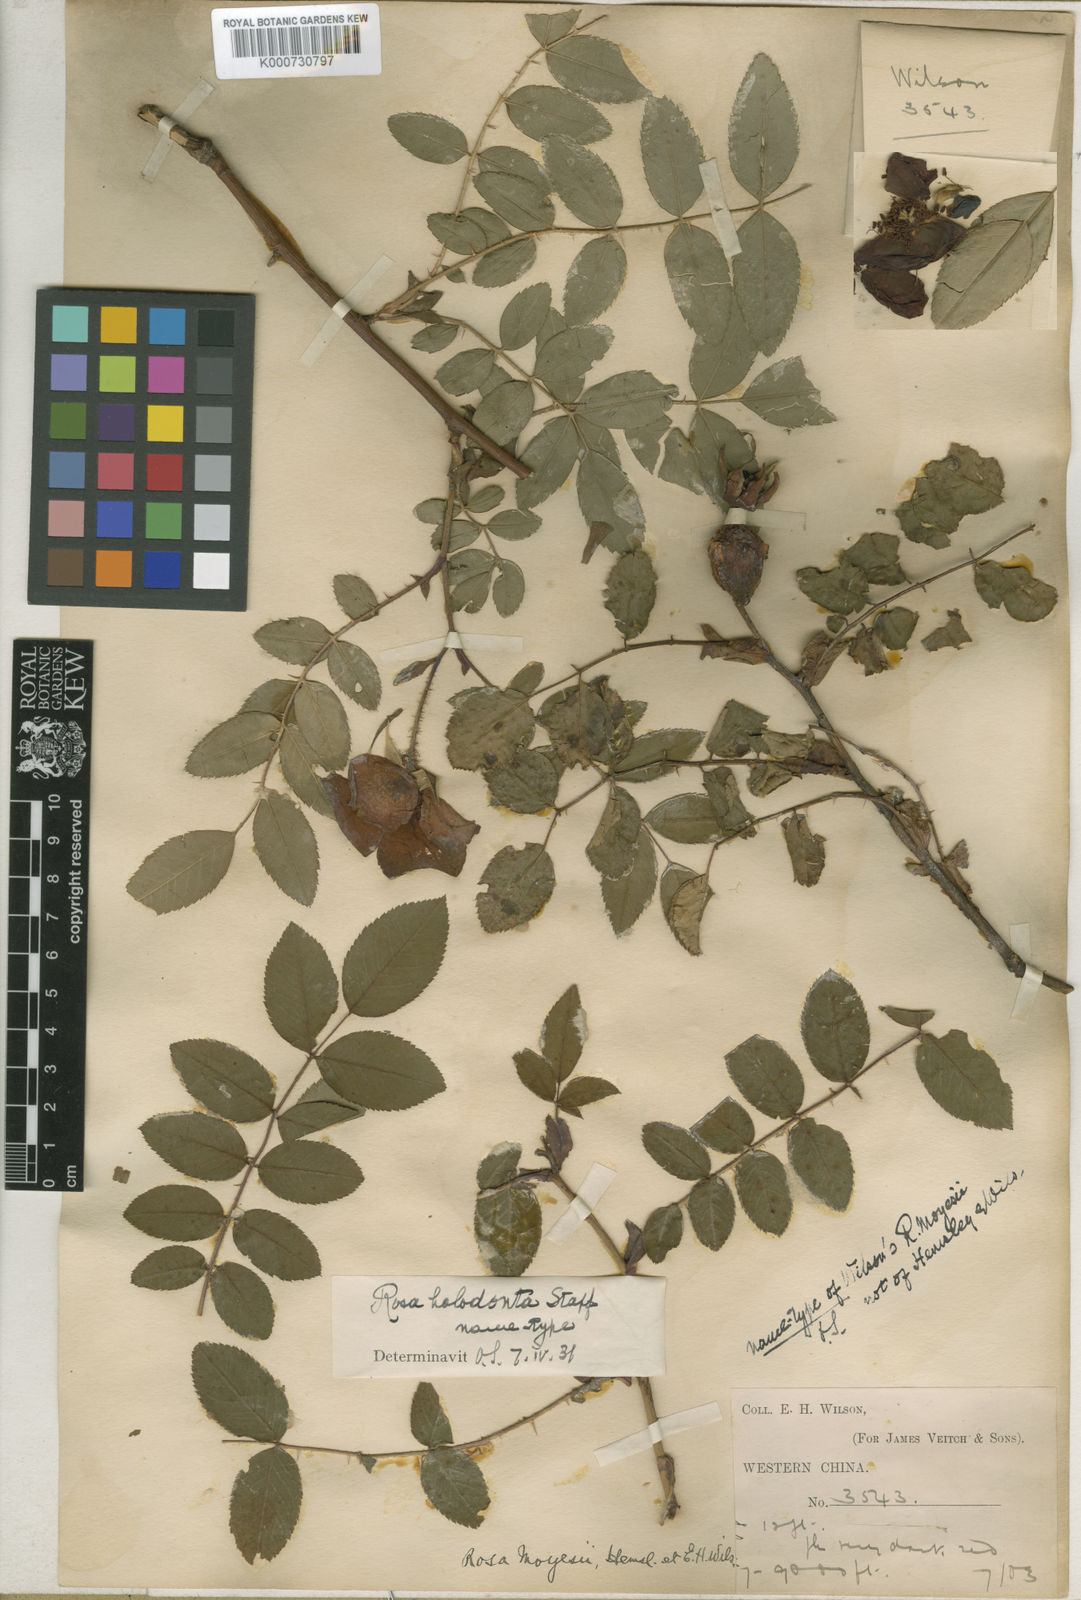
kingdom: Plantae
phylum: Tracheophyta
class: Magnoliopsida
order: Rosales
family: Rosaceae
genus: Rosa
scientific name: Rosa moyesii
